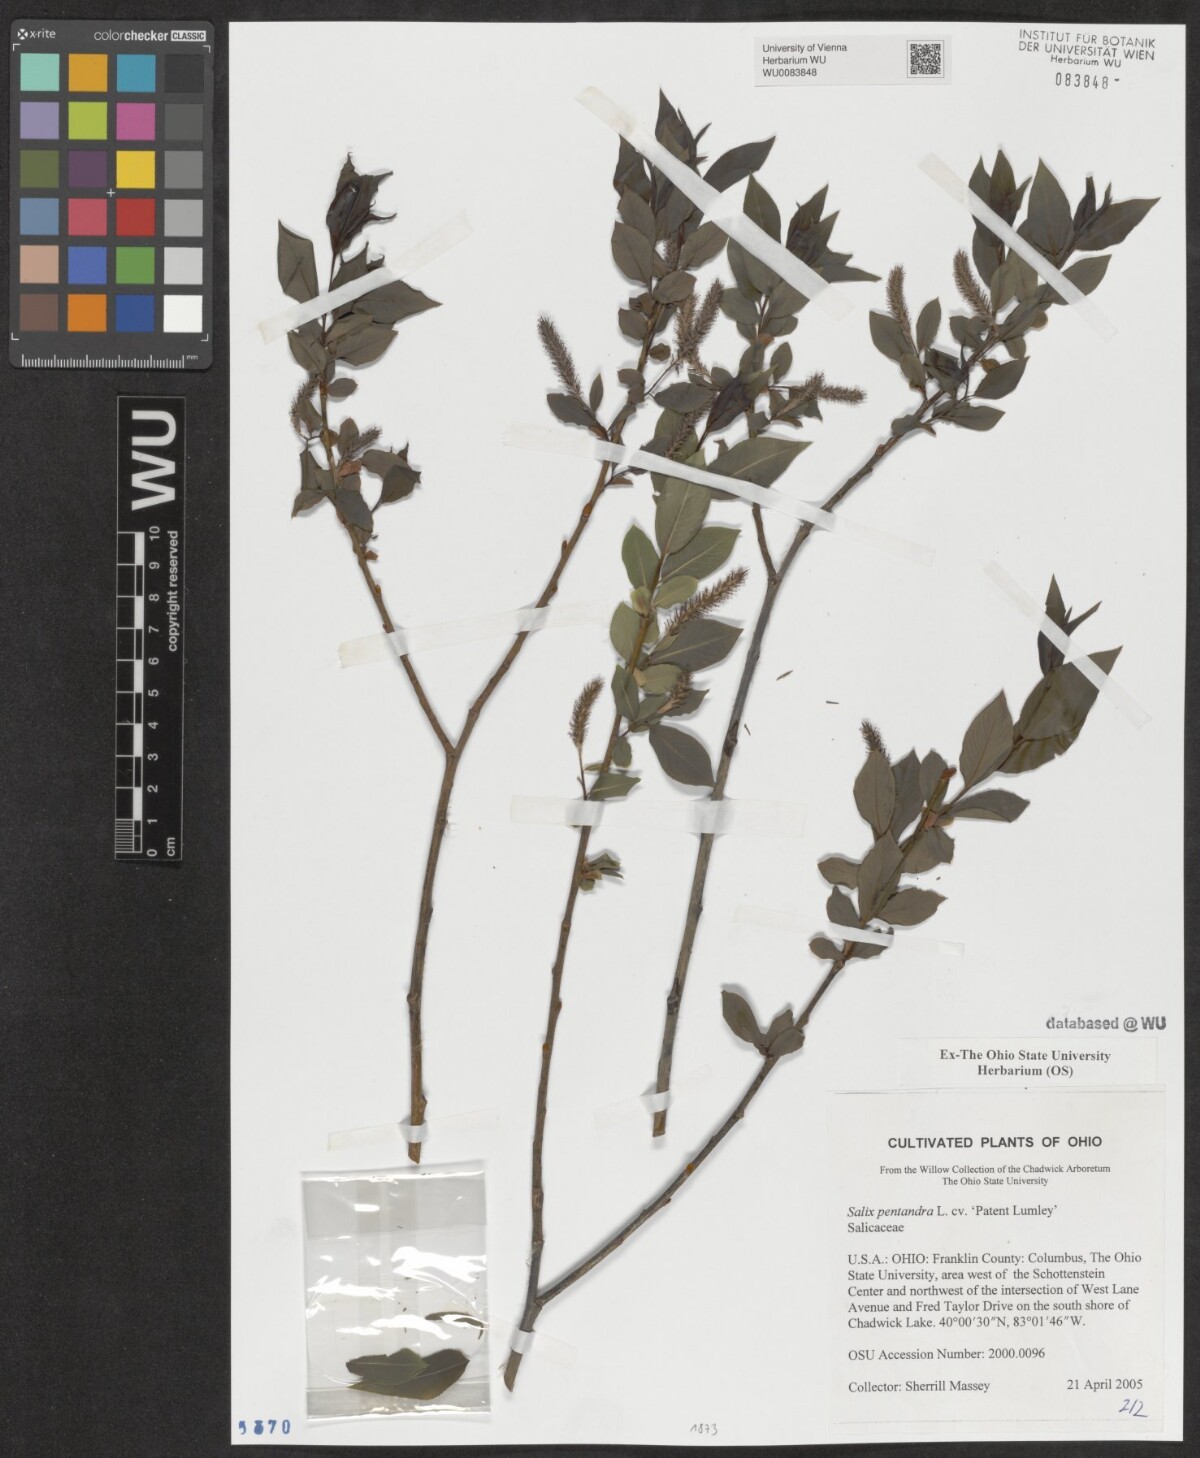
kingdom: Plantae
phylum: Tracheophyta
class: Magnoliopsida
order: Malpighiales
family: Salicaceae
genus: Salix
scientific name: Salix pentandra
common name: Bay willow
